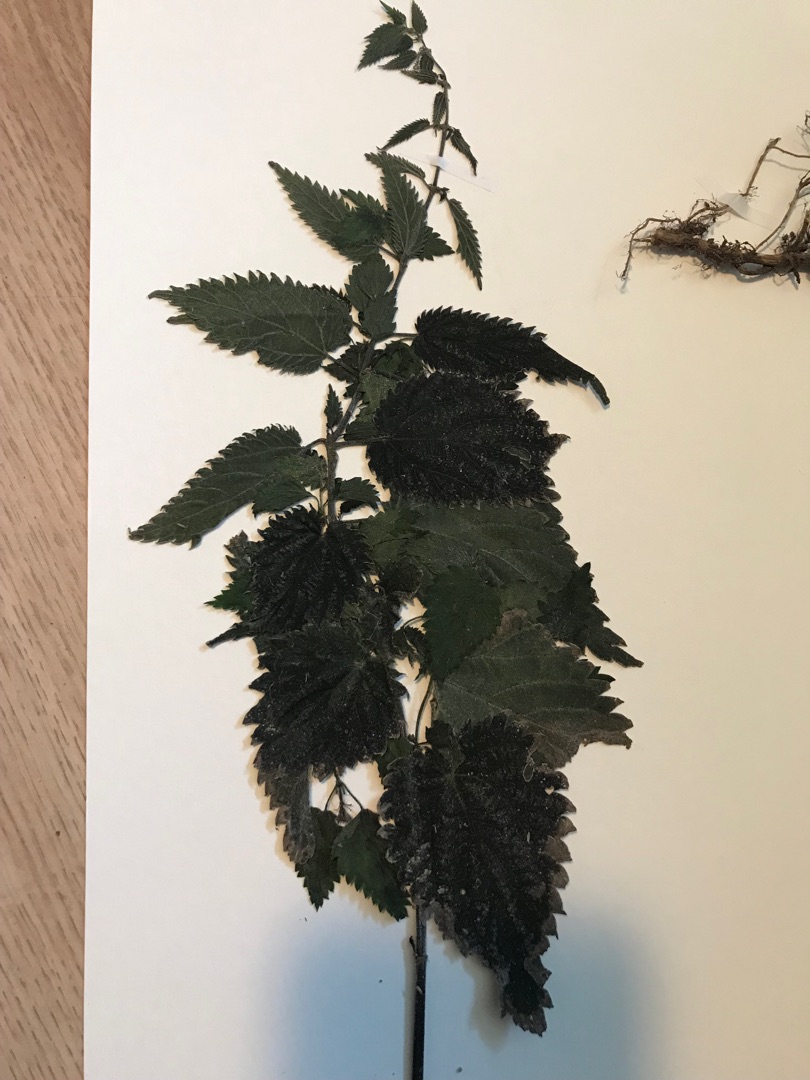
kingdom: Plantae
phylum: Tracheophyta
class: Magnoliopsida
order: Rosales
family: Urticaceae
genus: Urtica
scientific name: Urtica dioica
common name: Stor nælde
